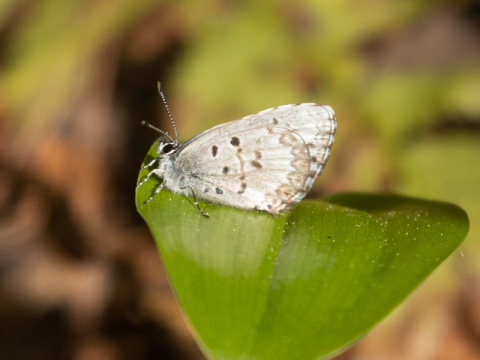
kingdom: Animalia
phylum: Arthropoda
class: Insecta
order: Lepidoptera
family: Lycaenidae
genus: Celastrina
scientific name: Celastrina lucia
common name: Northern Spring Azure
